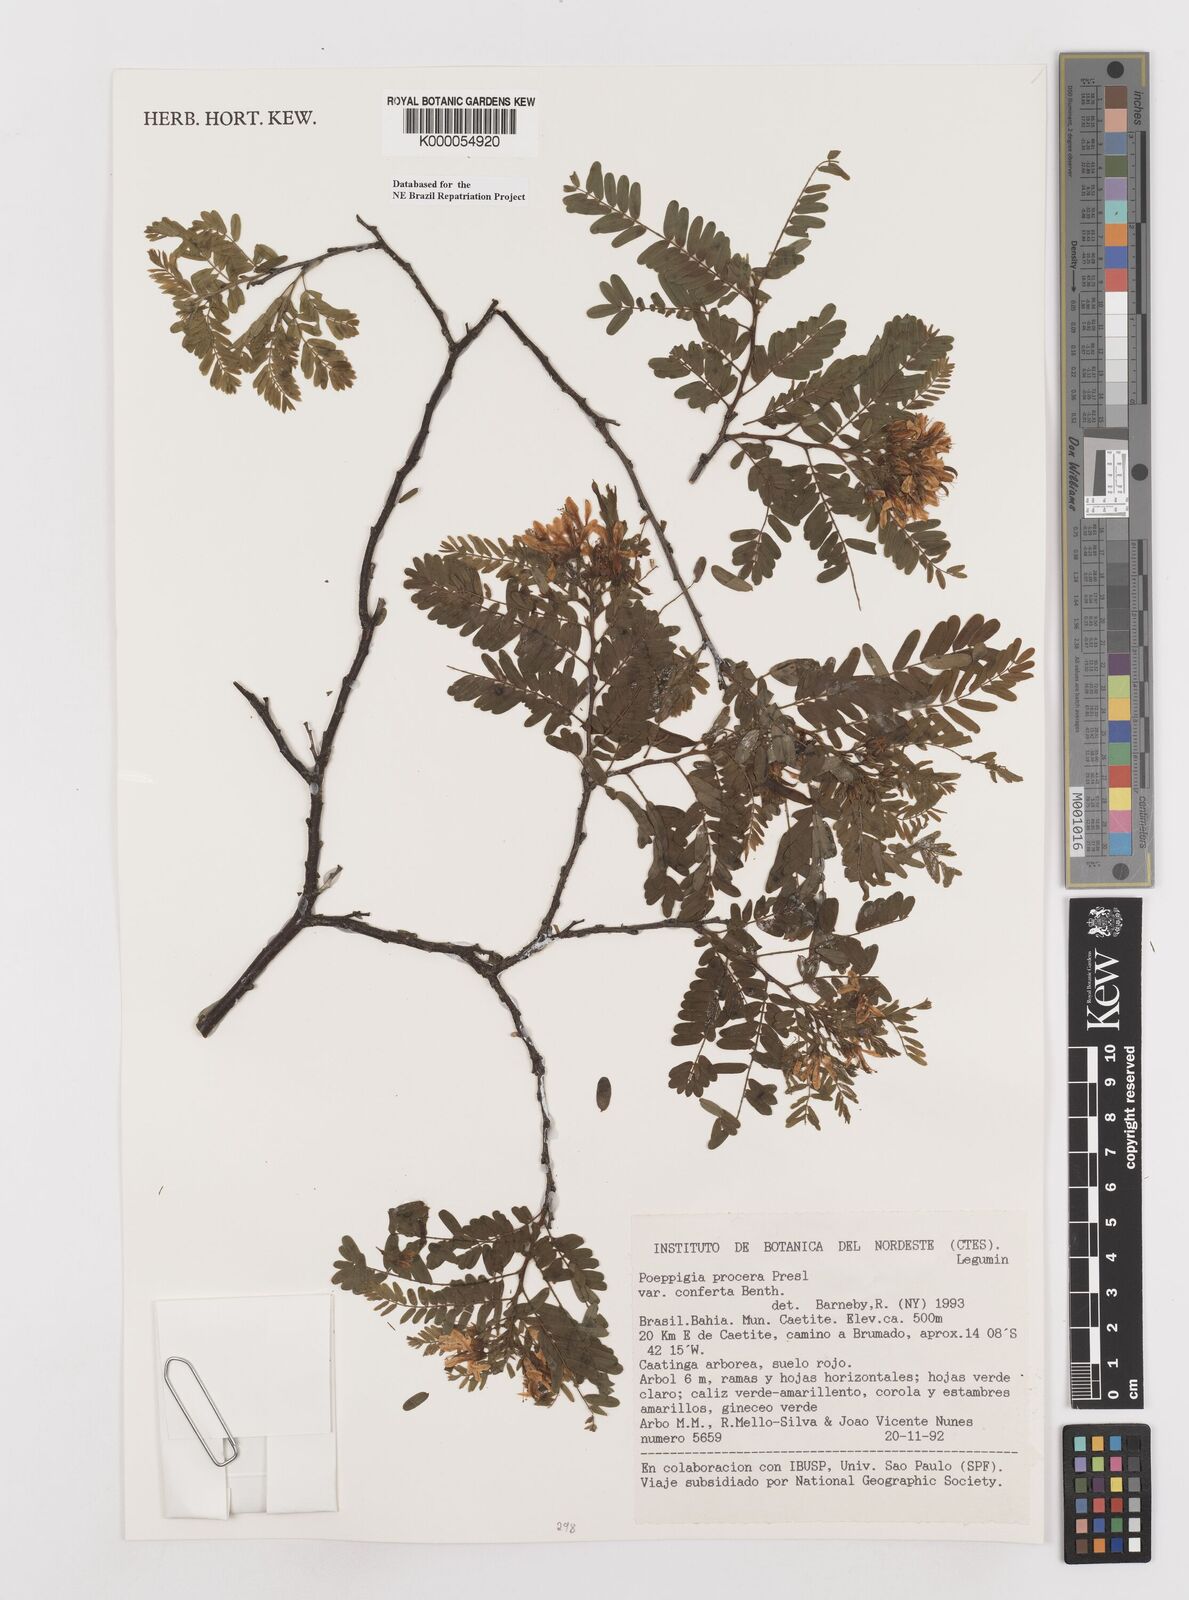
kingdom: Plantae
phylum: Tracheophyta
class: Magnoliopsida
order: Fabales
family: Fabaceae
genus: Poeppigia
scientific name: Poeppigia procera
